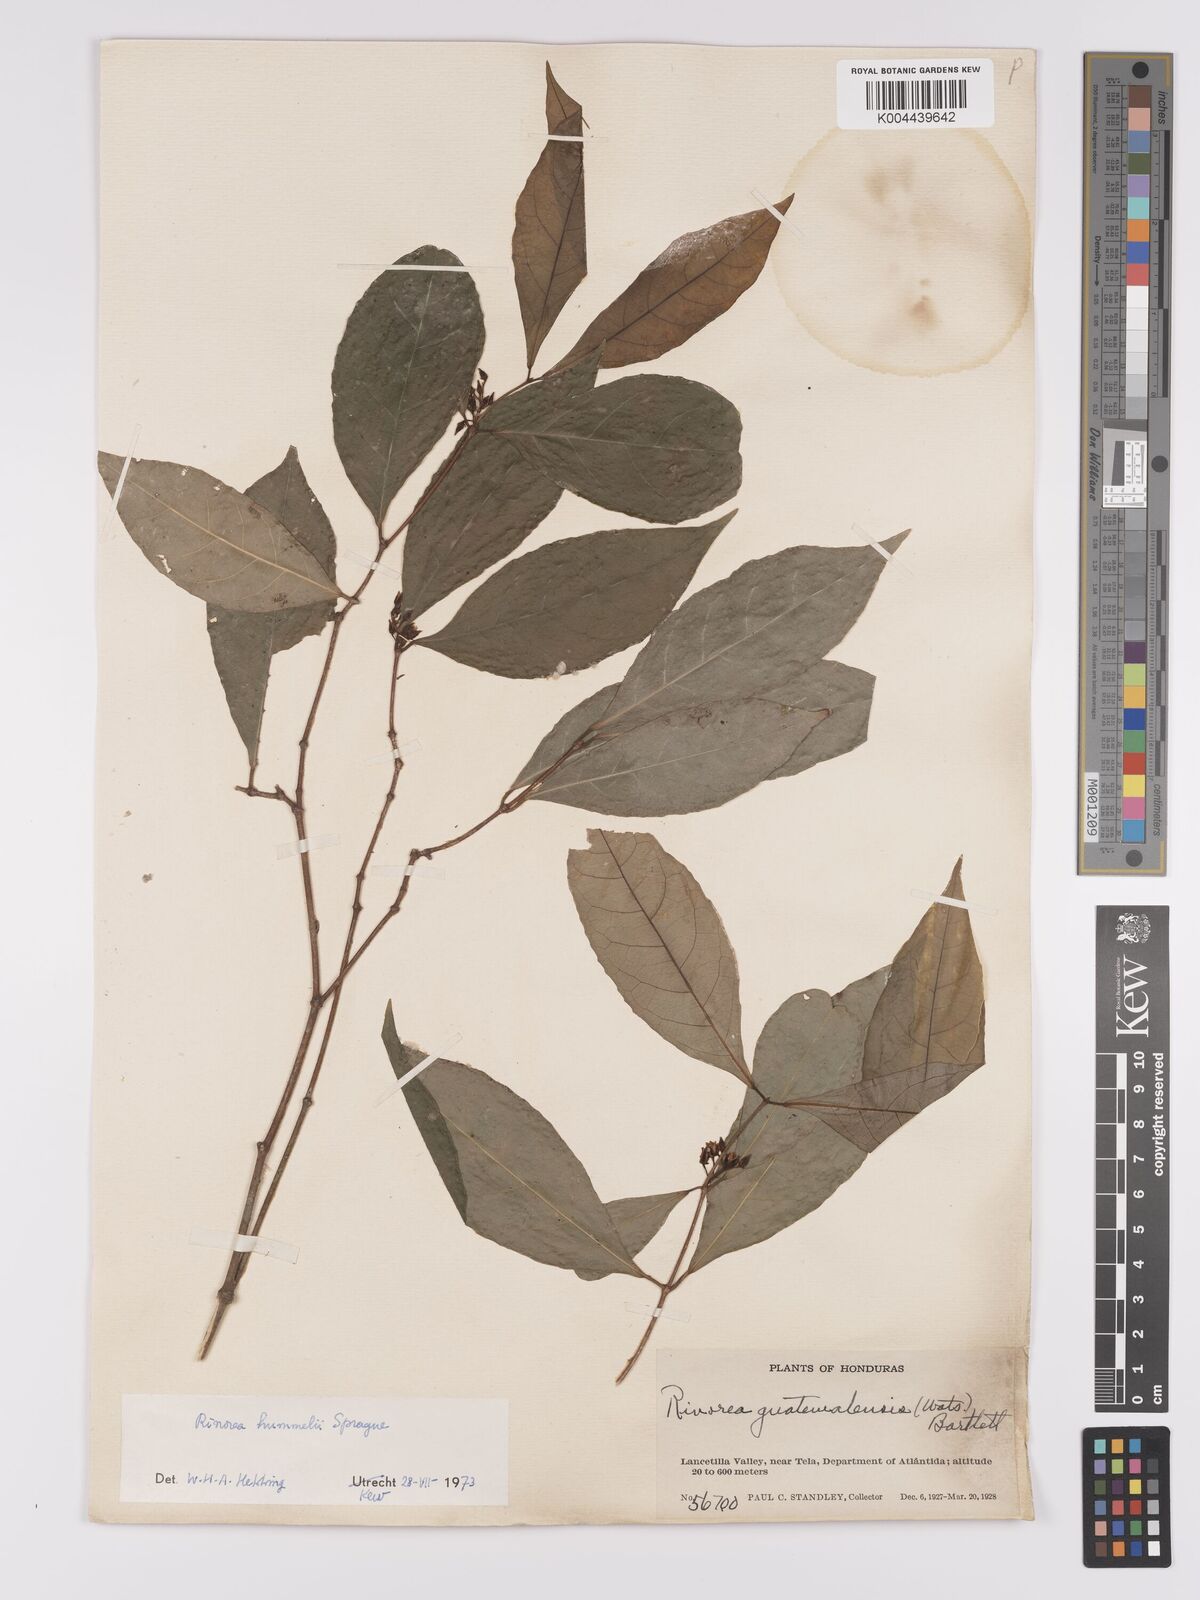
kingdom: Plantae
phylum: Tracheophyta
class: Magnoliopsida
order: Malpighiales
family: Violaceae
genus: Rinorea
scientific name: Rinorea hummelii
